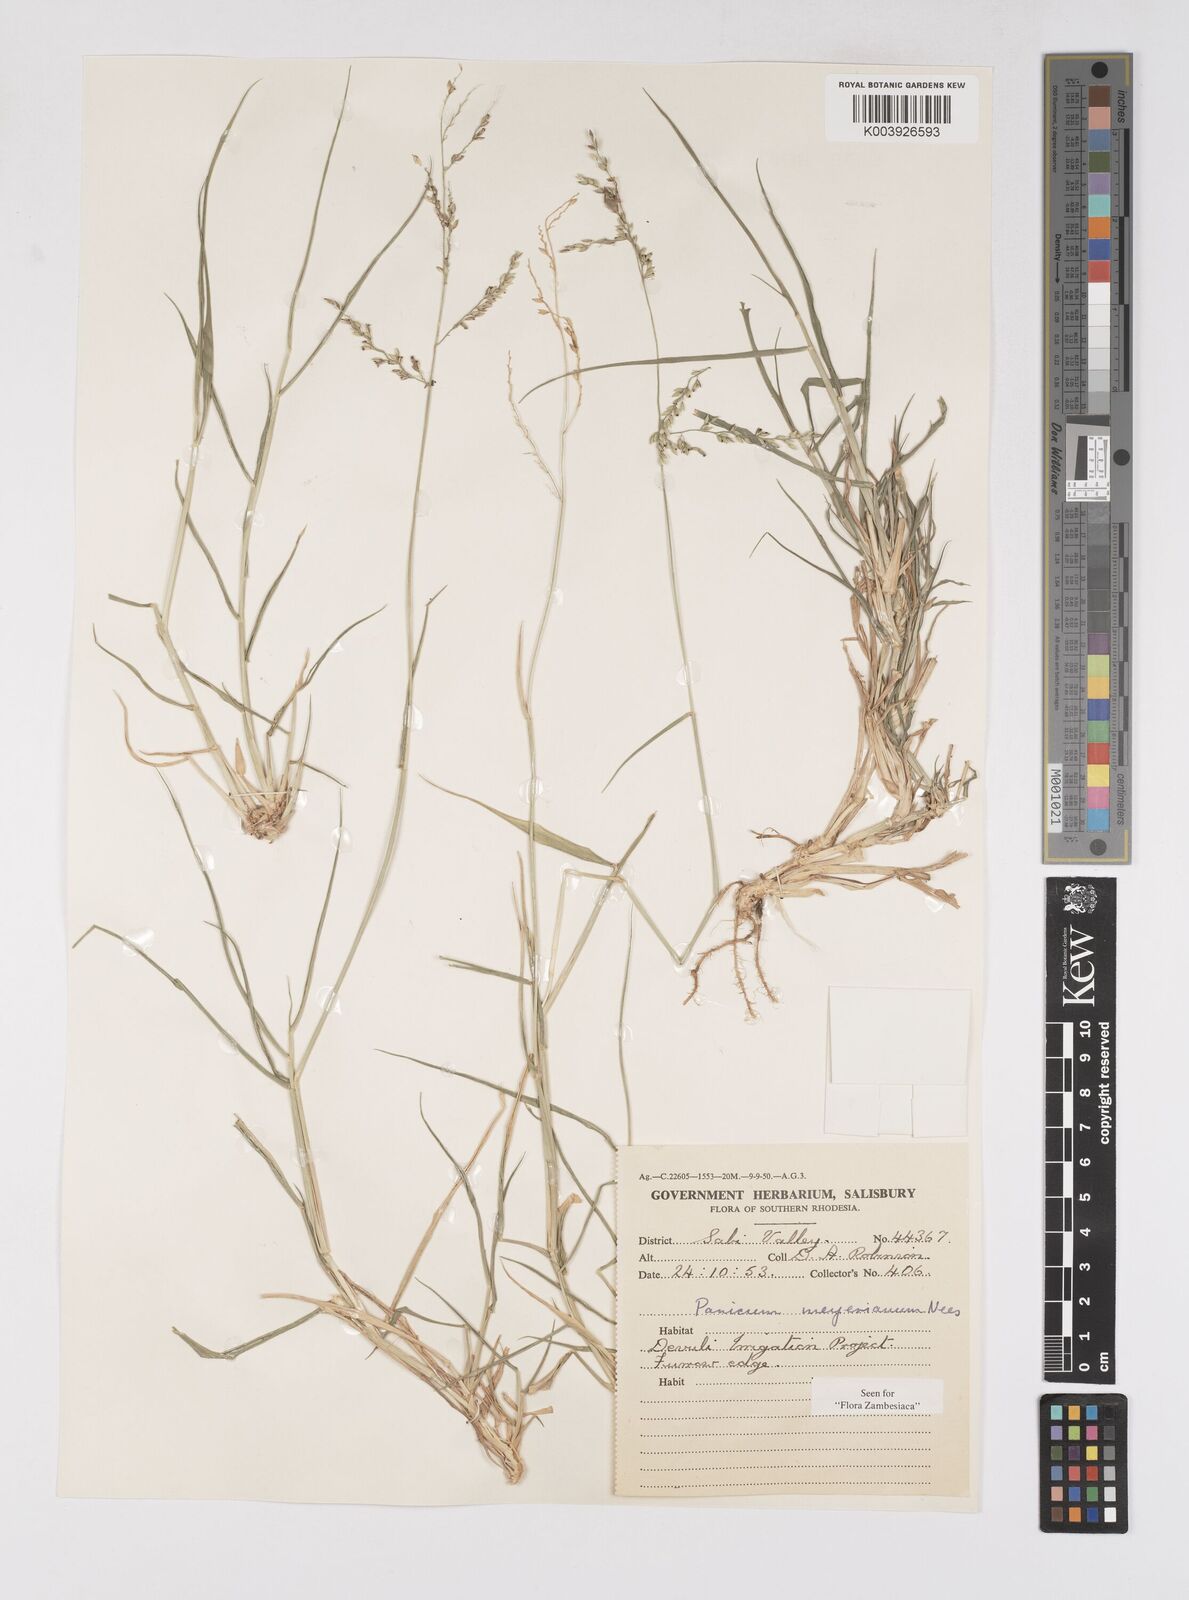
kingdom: Plantae
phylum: Tracheophyta
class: Liliopsida
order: Poales
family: Poaceae
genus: Eriochloa
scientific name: Eriochloa meyeriana
